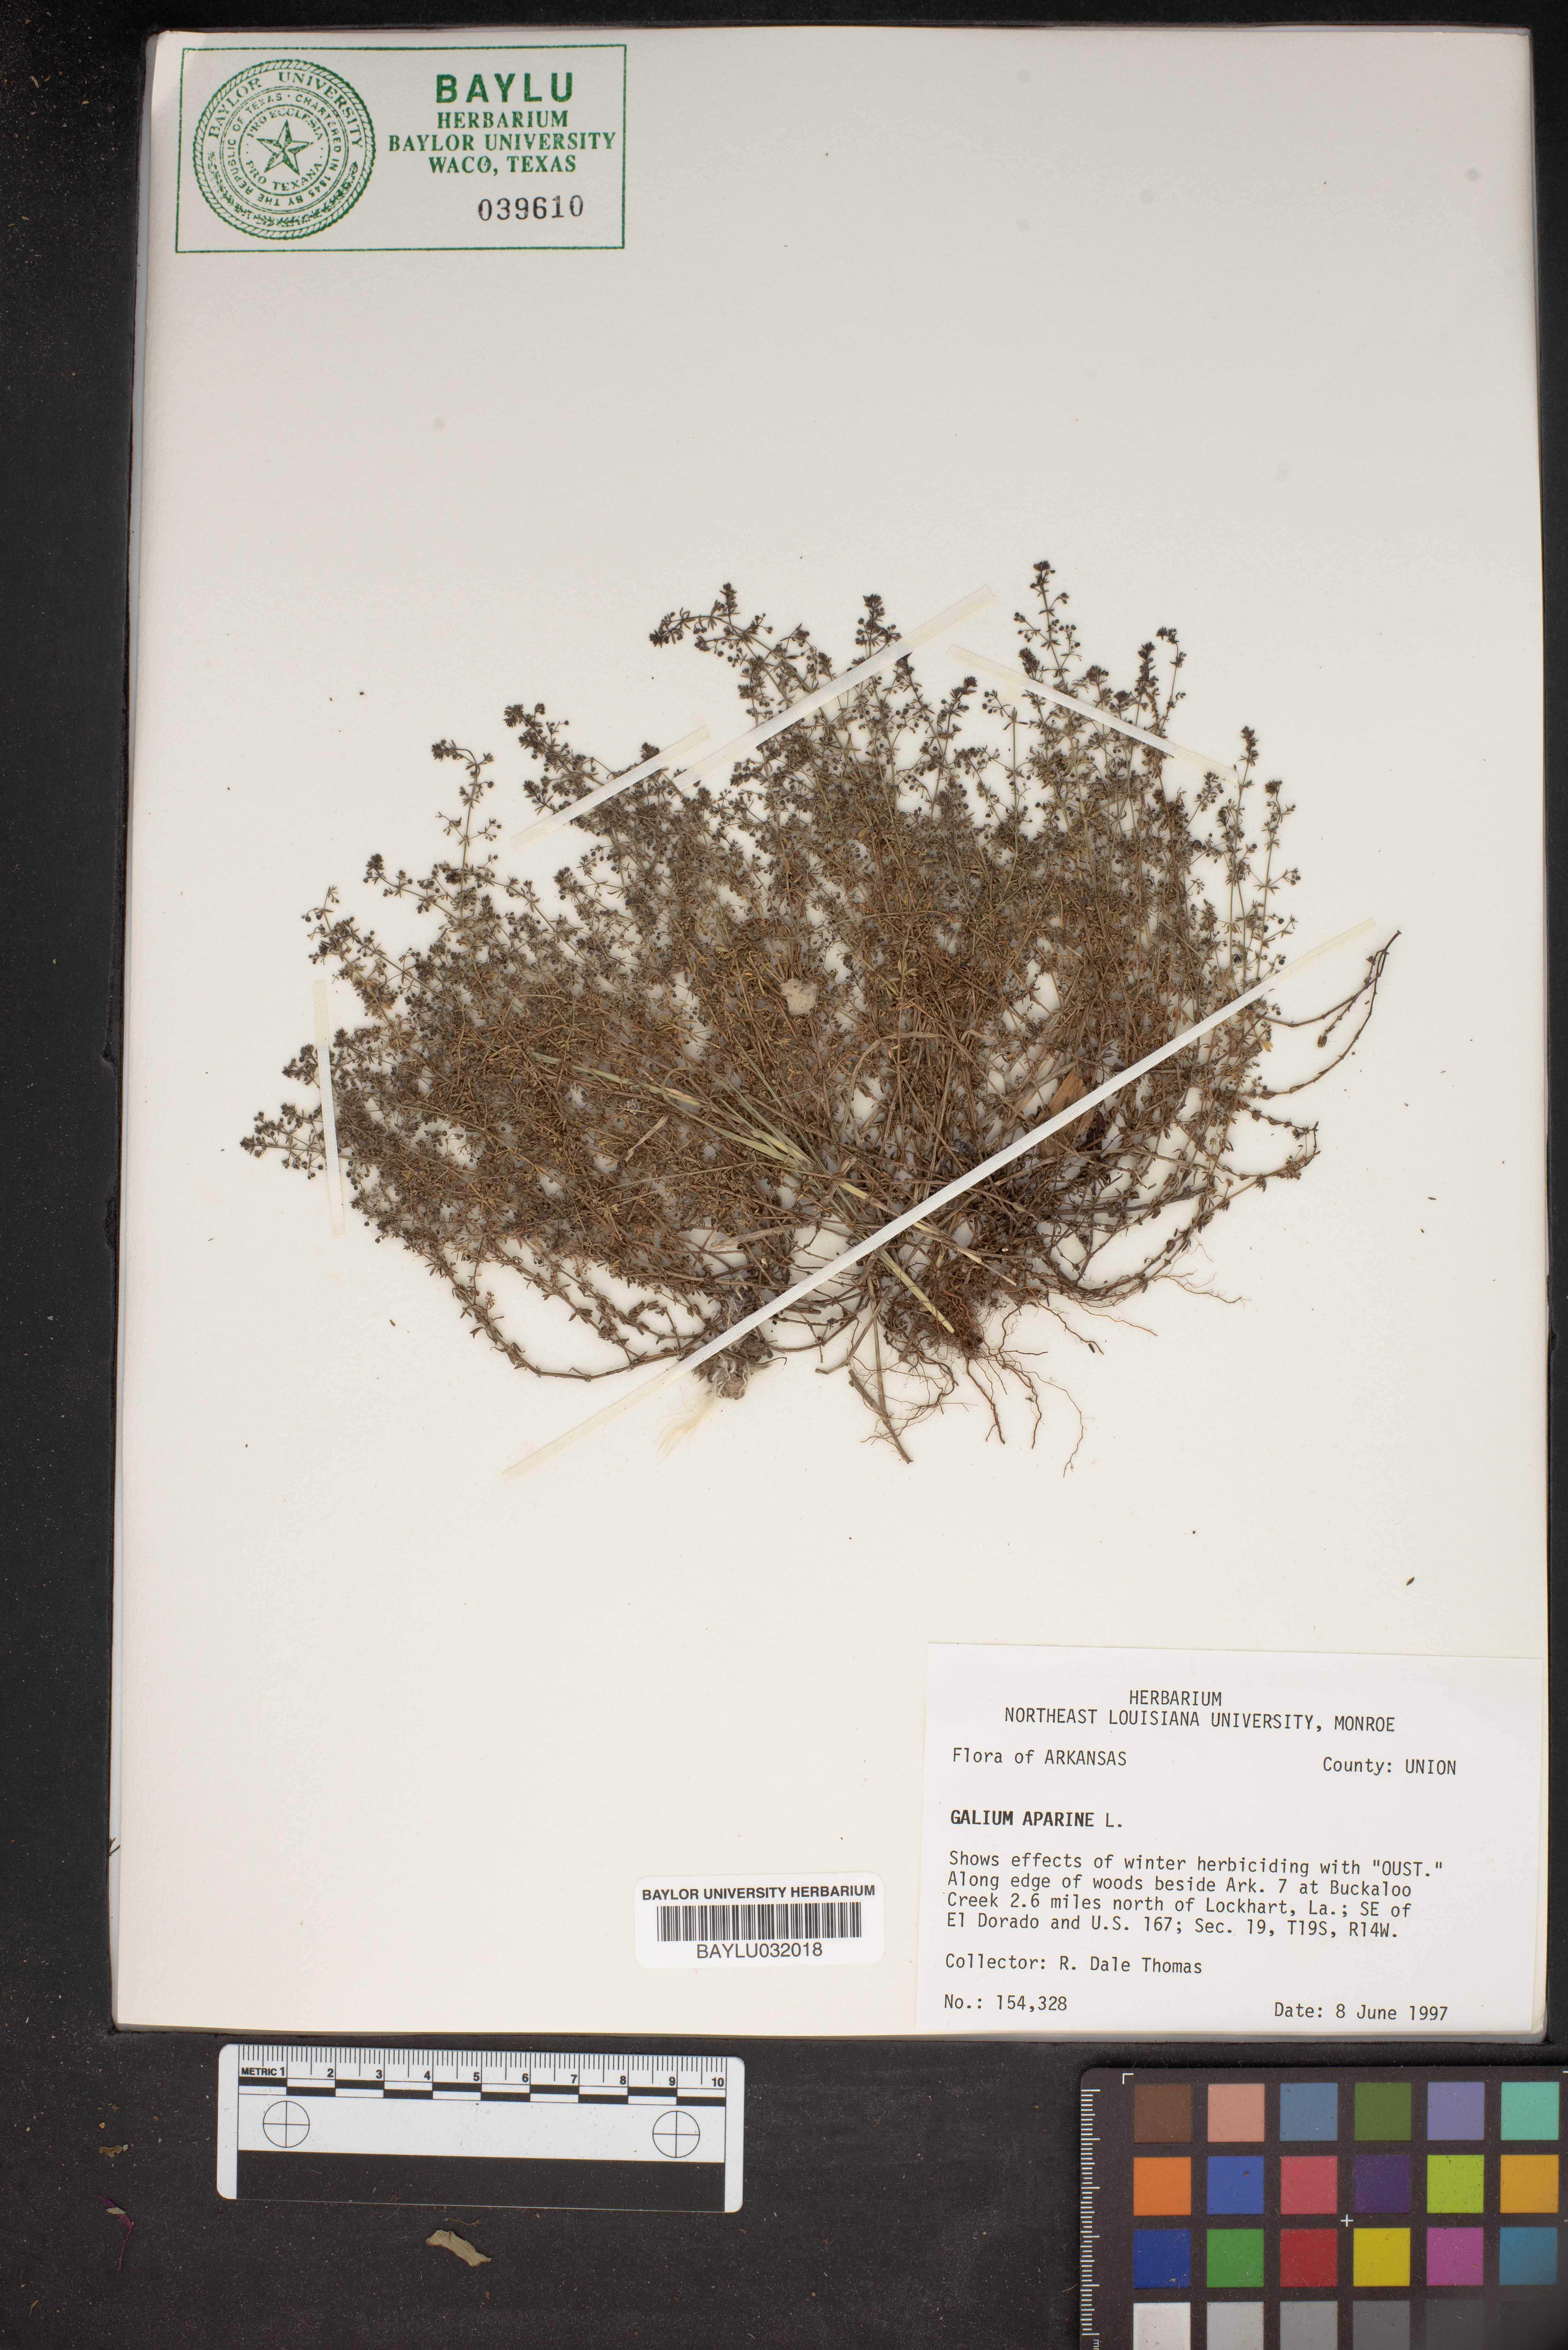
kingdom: Plantae
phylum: Tracheophyta
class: Magnoliopsida
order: Gentianales
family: Rubiaceae
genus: Galium
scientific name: Galium aparine
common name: Cleavers
